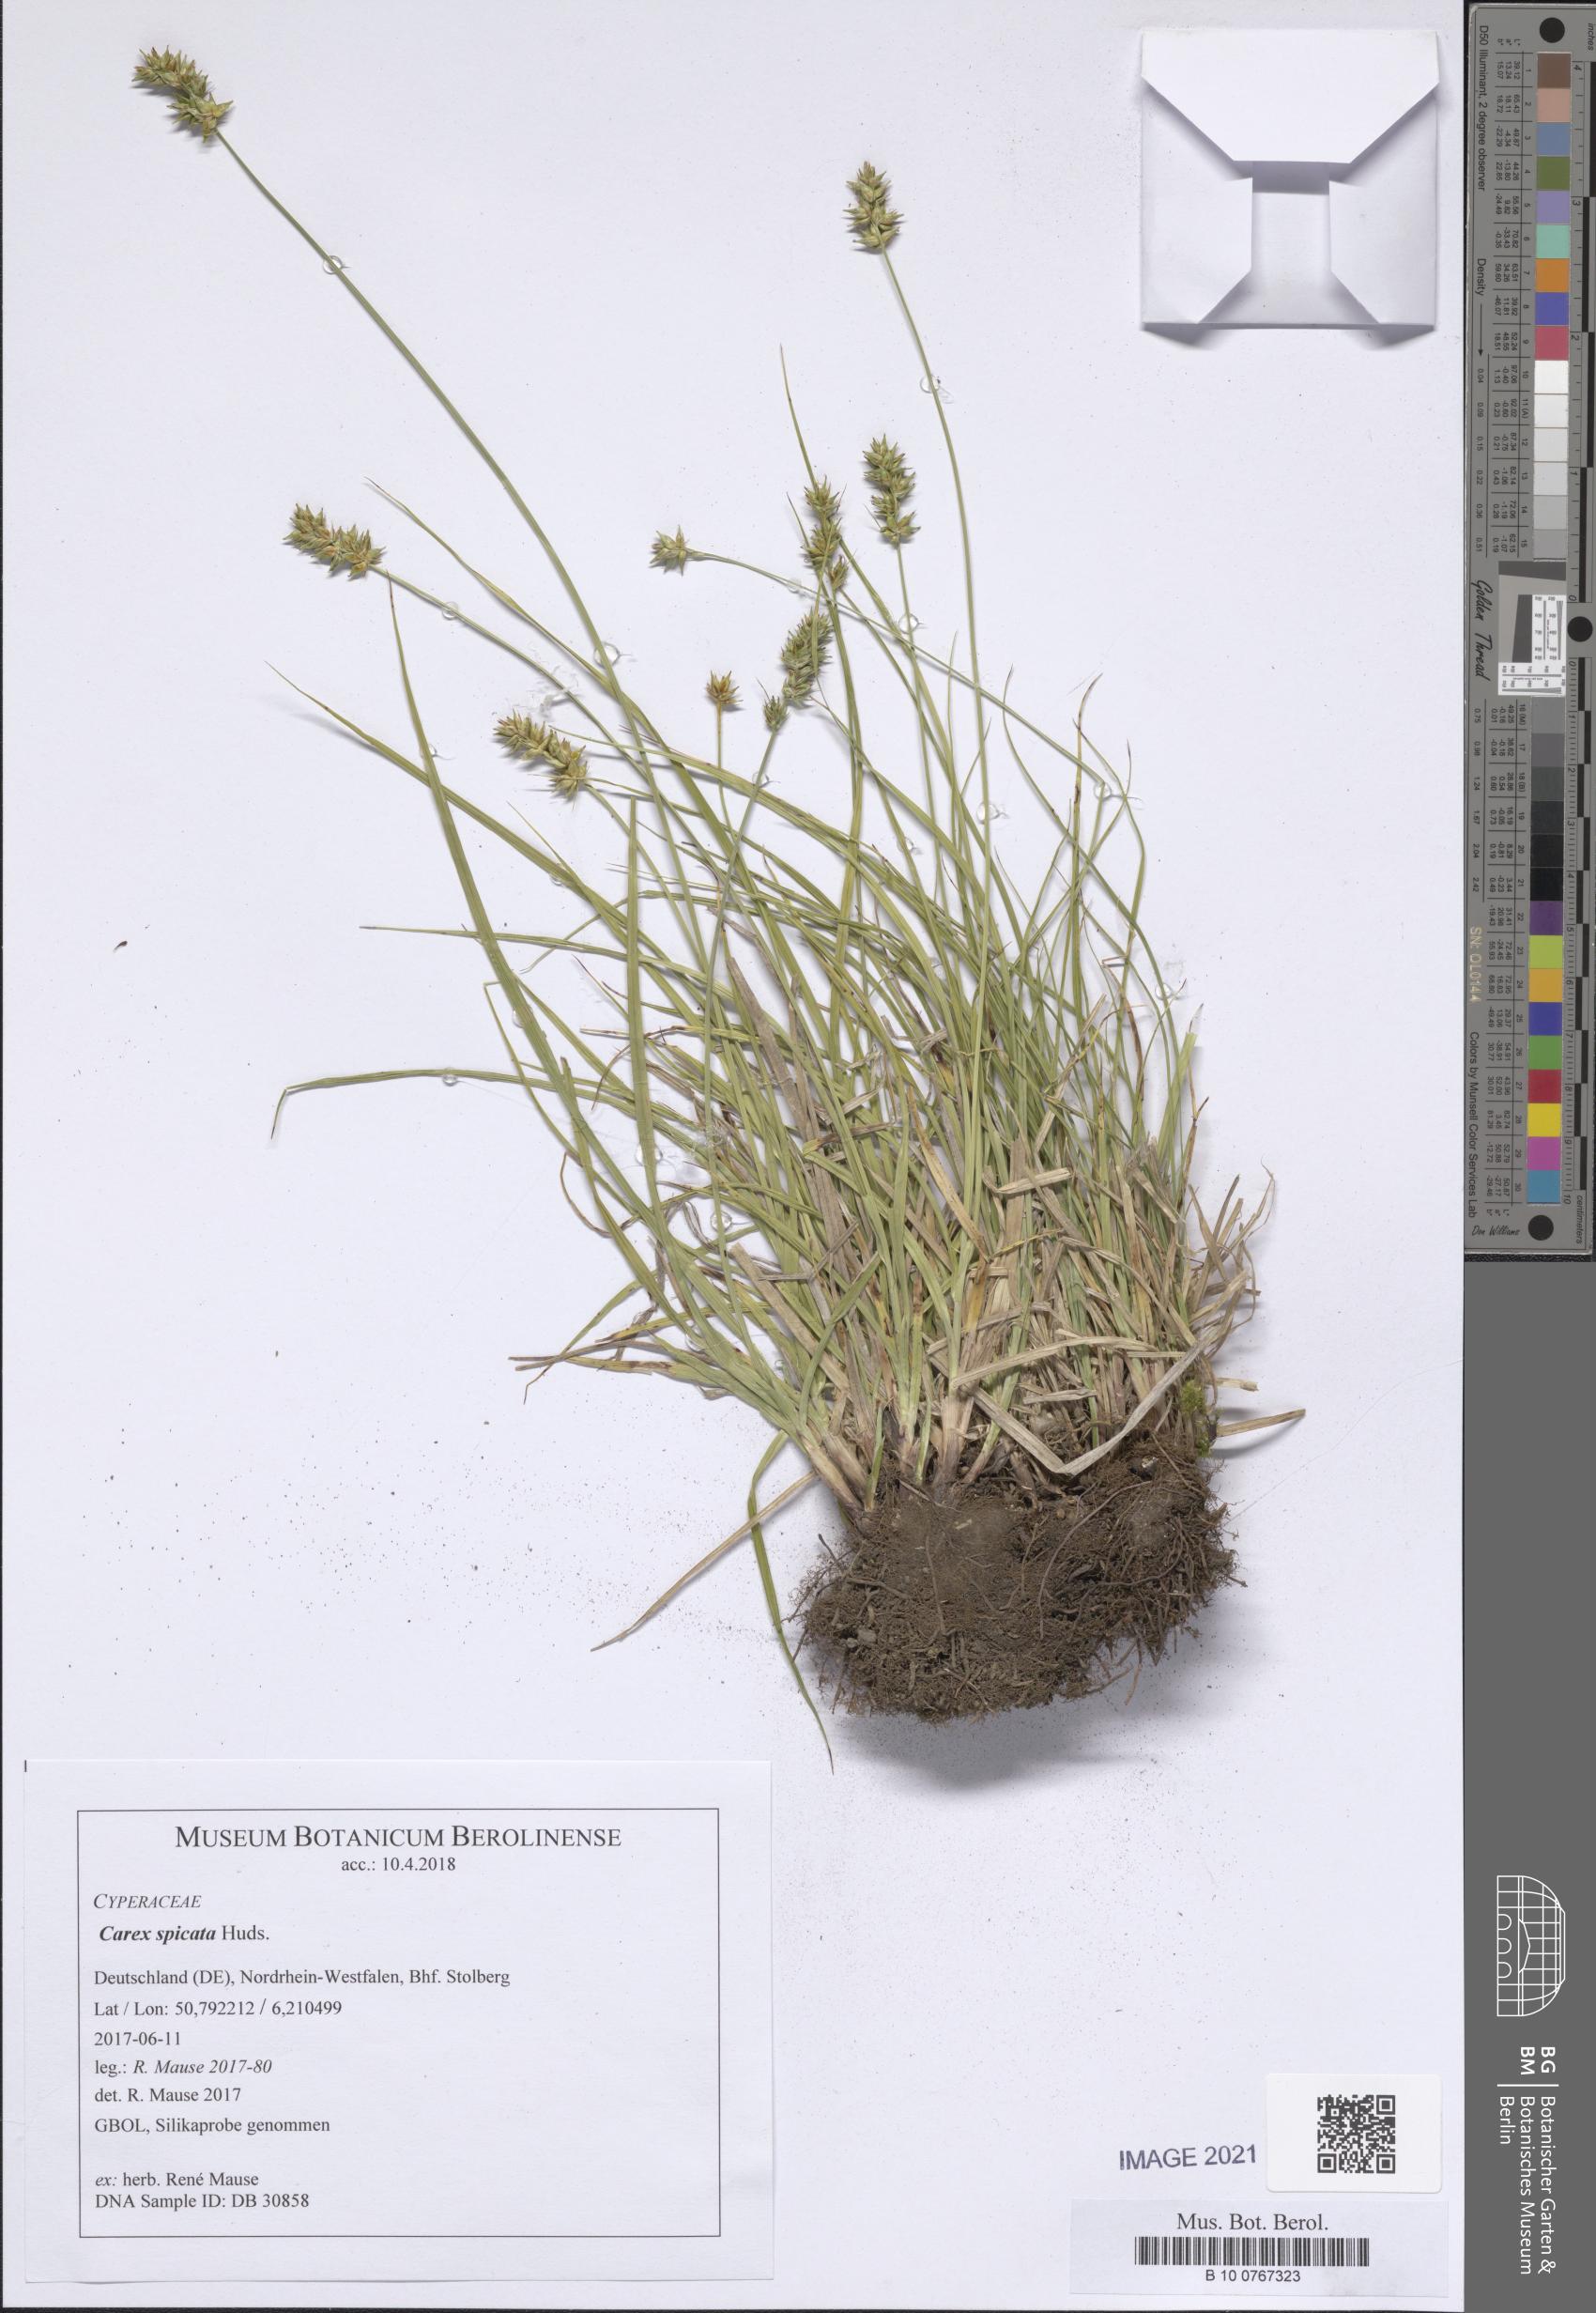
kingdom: Plantae
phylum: Tracheophyta
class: Liliopsida
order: Poales
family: Cyperaceae
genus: Carex
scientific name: Carex spicata
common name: Spiked sedge
